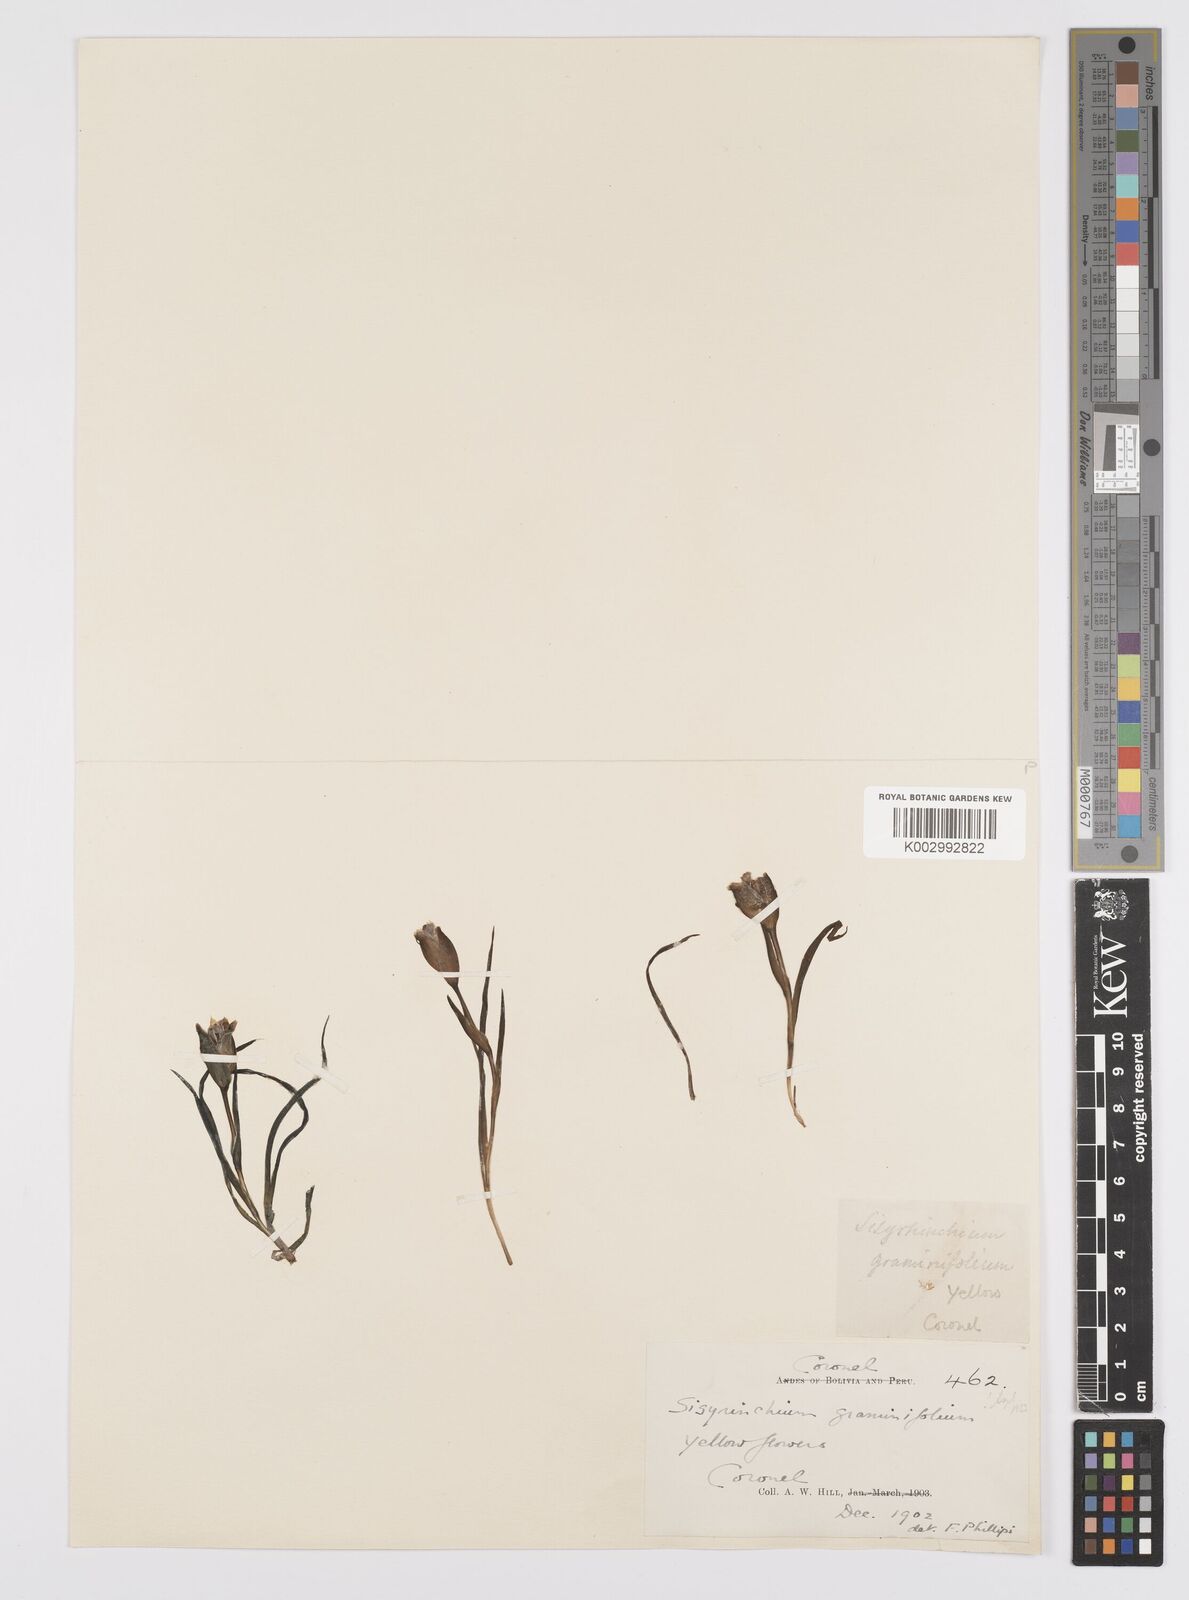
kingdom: Plantae
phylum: Tracheophyta
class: Liliopsida
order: Asparagales
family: Iridaceae
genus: Sisyrinchium
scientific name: Sisyrinchium graminifolium
